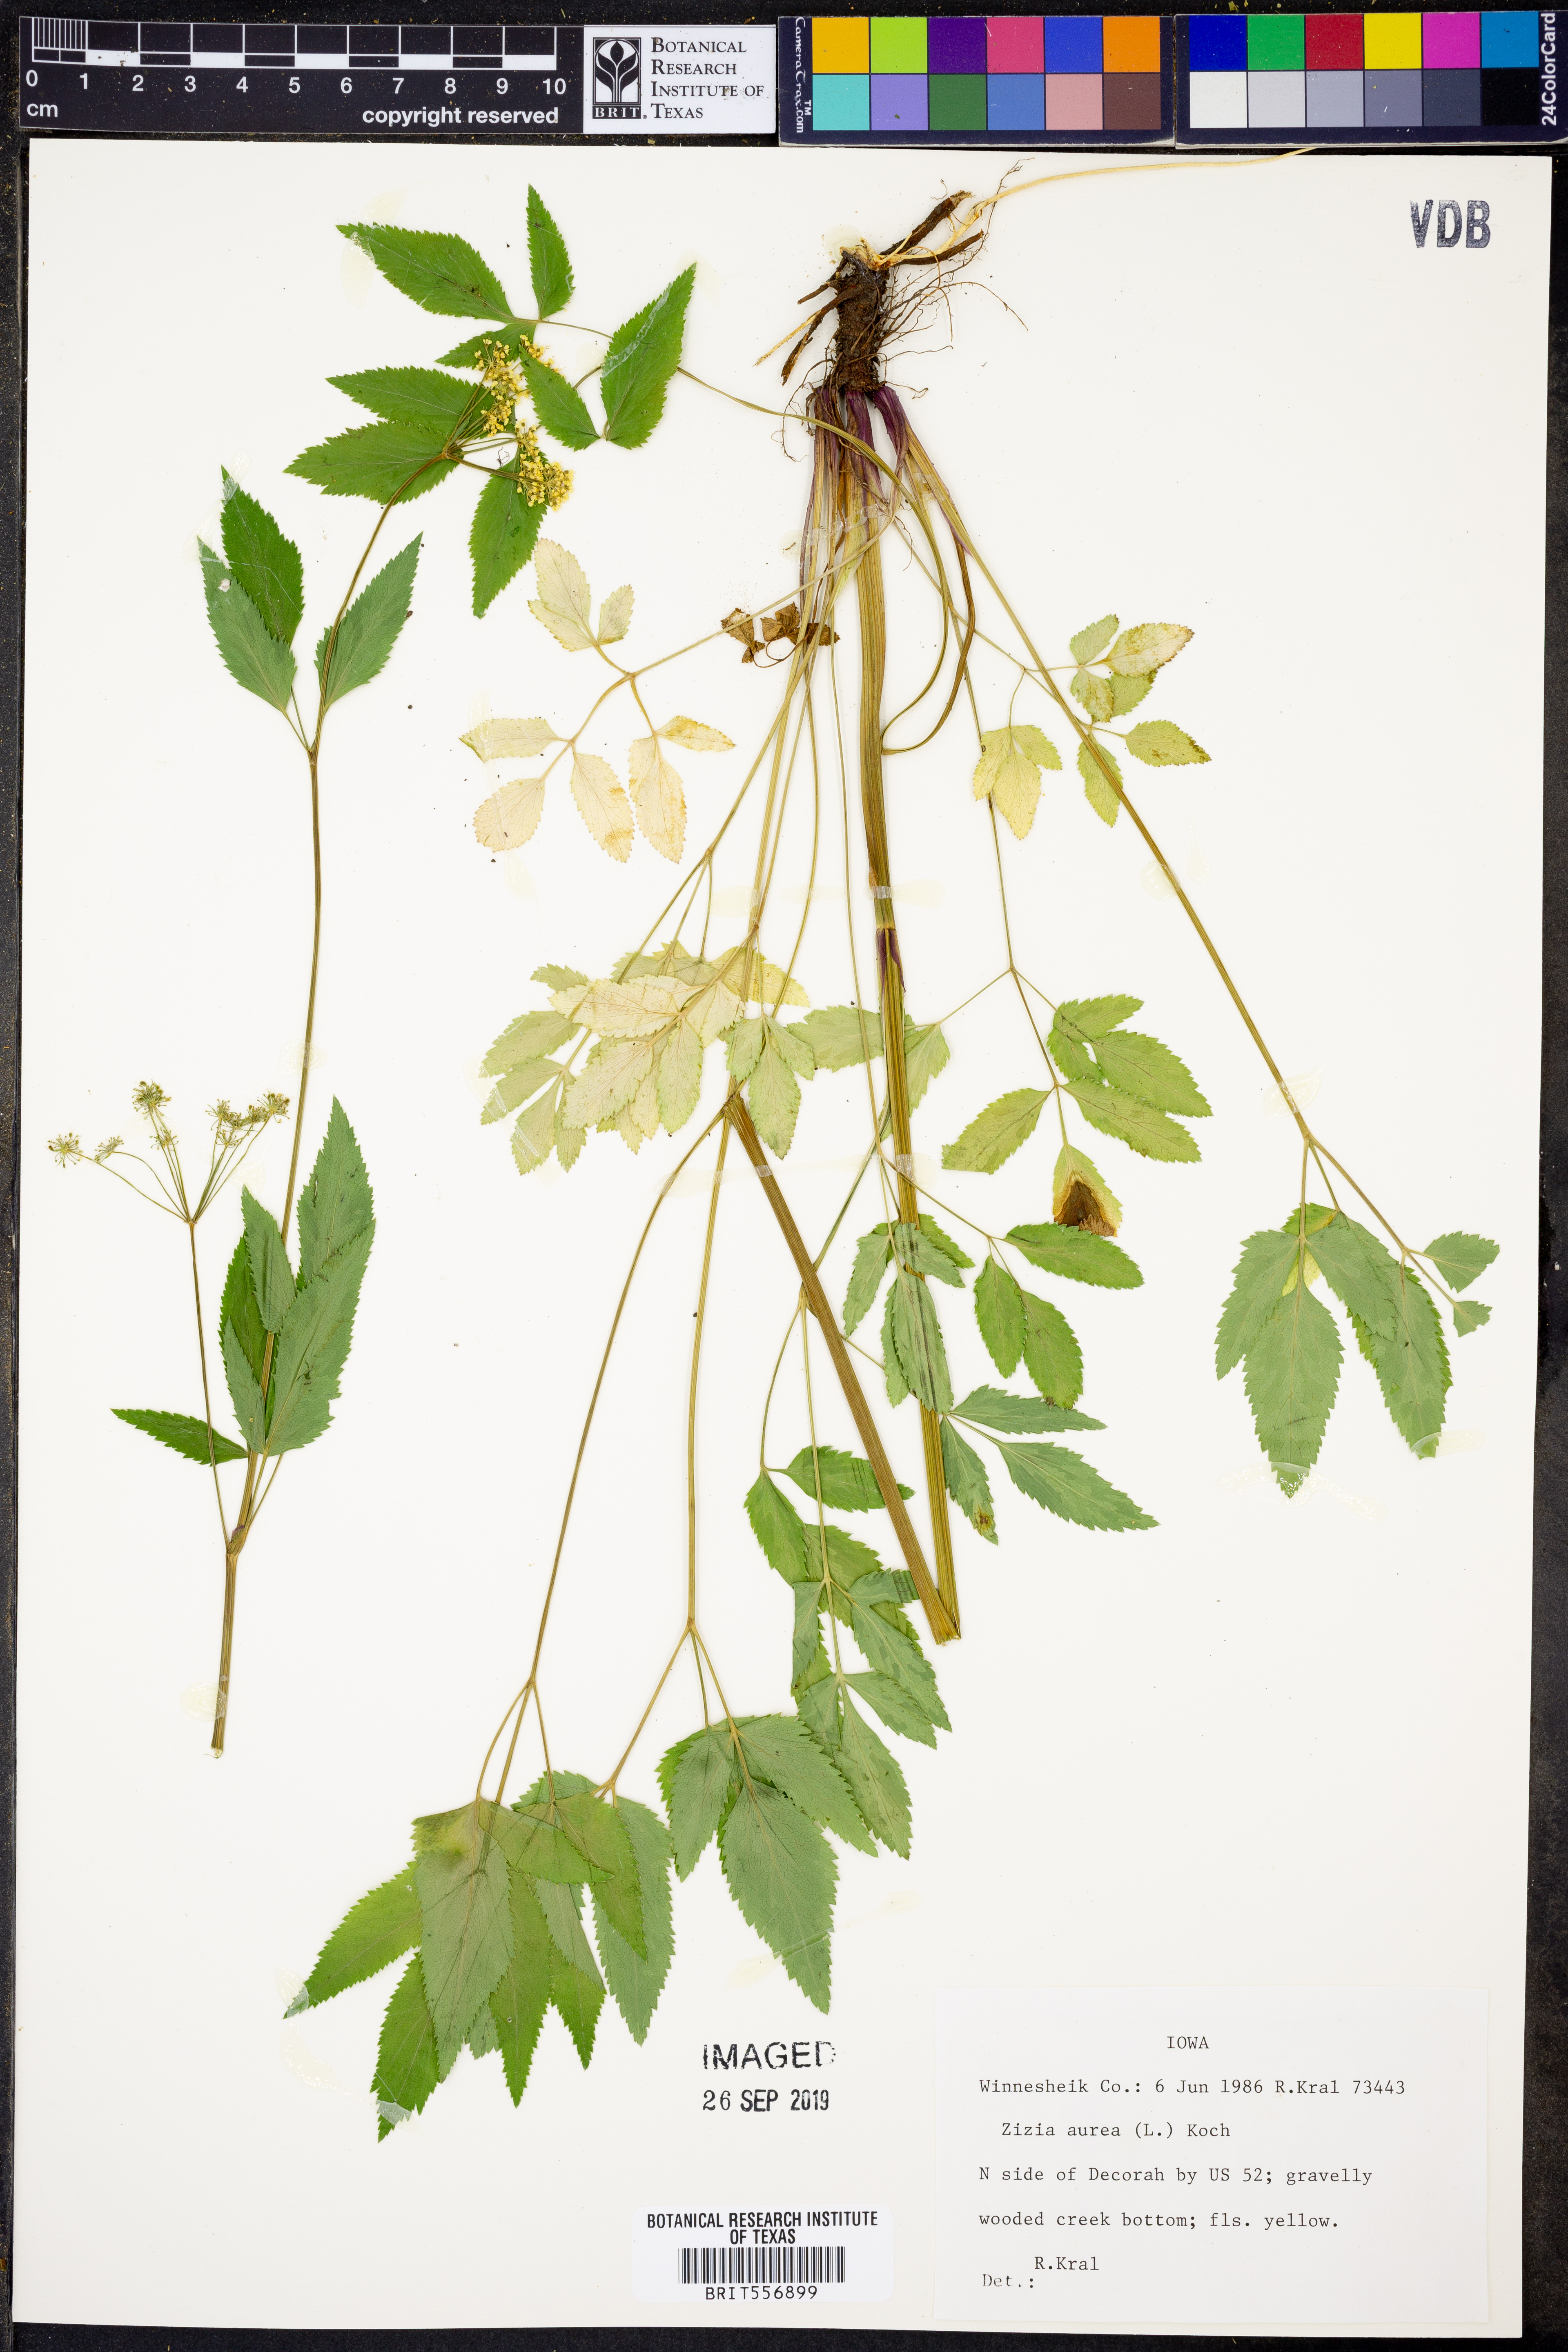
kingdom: Plantae
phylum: Tracheophyta
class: Magnoliopsida
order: Apiales
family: Apiaceae
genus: Zizia
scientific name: Zizia aurea
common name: Golden alexanders
